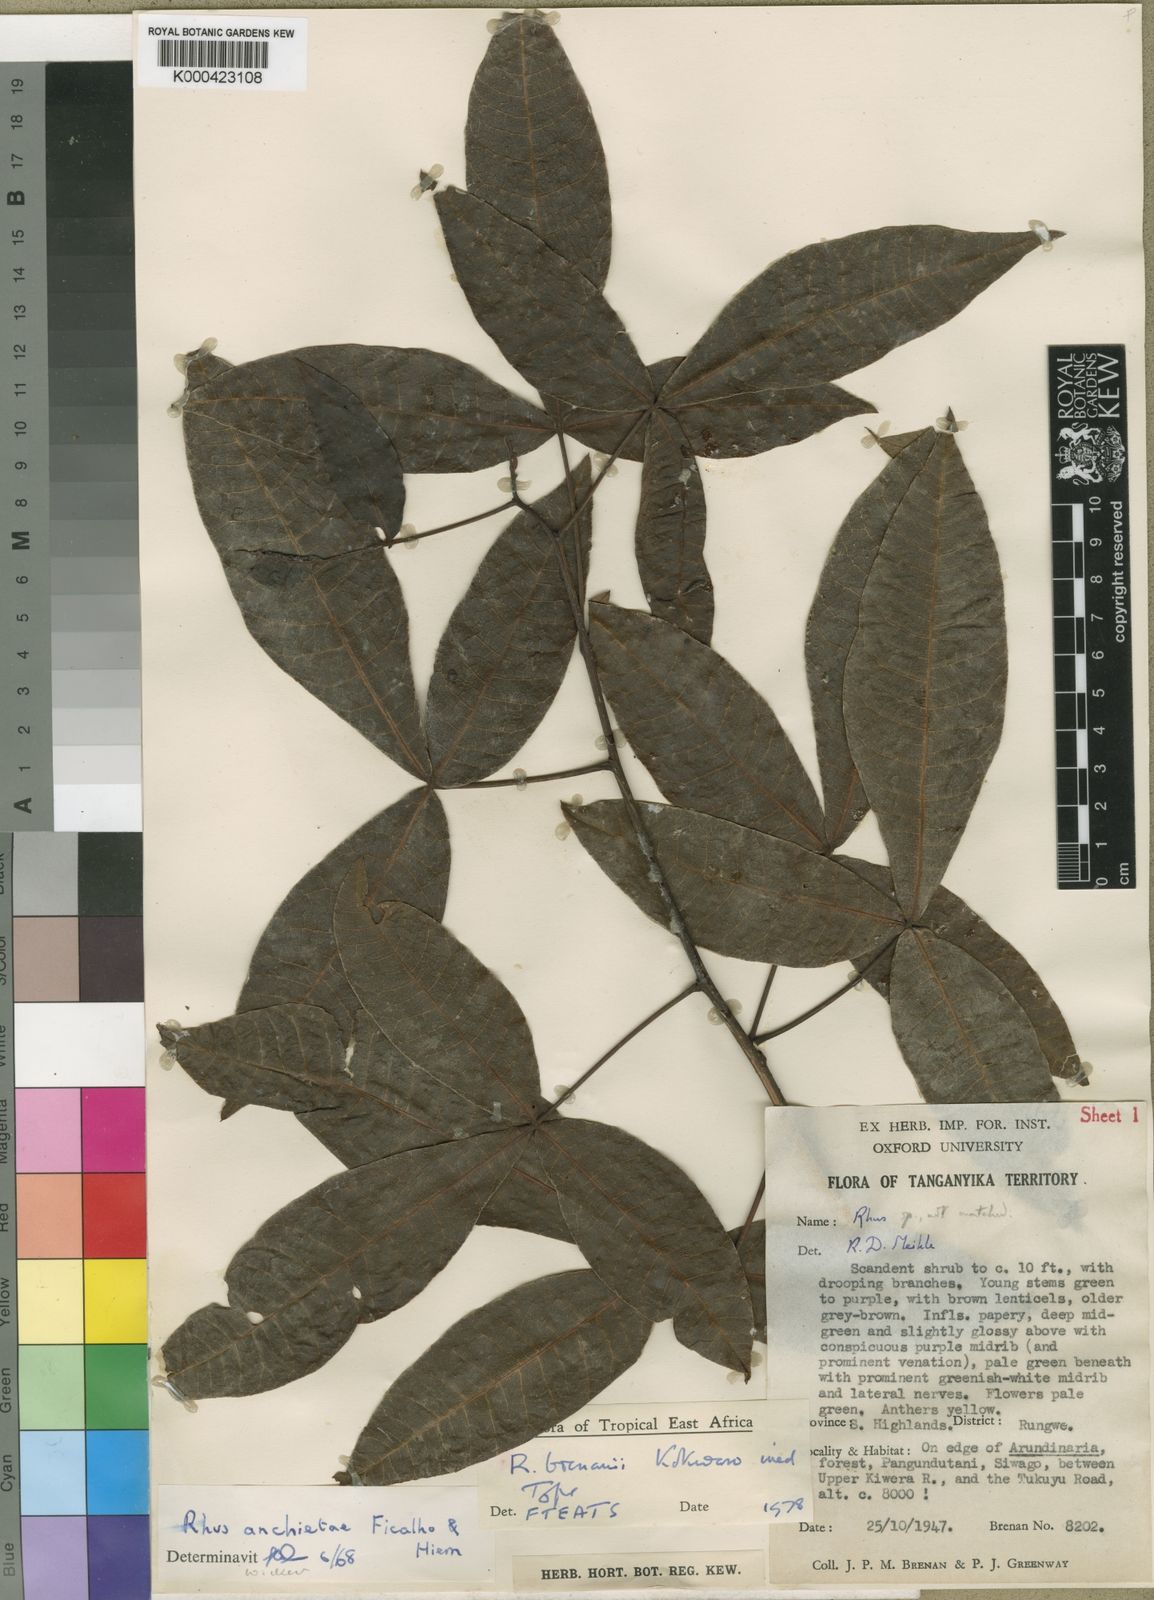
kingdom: Plantae
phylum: Tracheophyta
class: Magnoliopsida
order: Sapindales
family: Anacardiaceae
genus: Searsia
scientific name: Searsia brenanii
